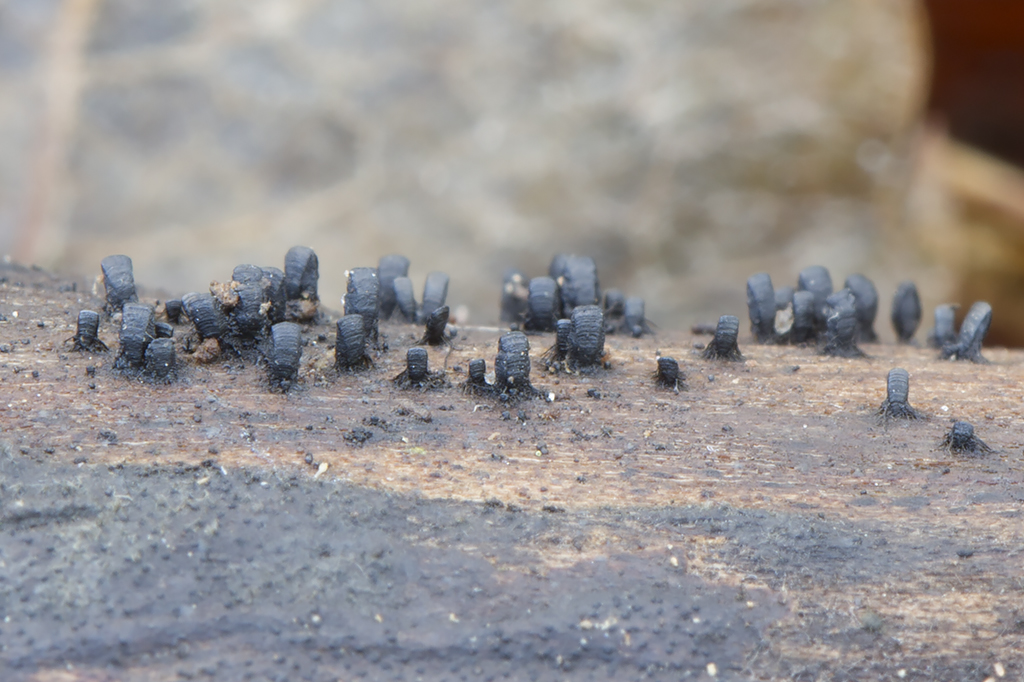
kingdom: Fungi
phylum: Ascomycota
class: Eurotiomycetes
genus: Glyphium
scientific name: Glyphium elatum
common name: kuløkse
